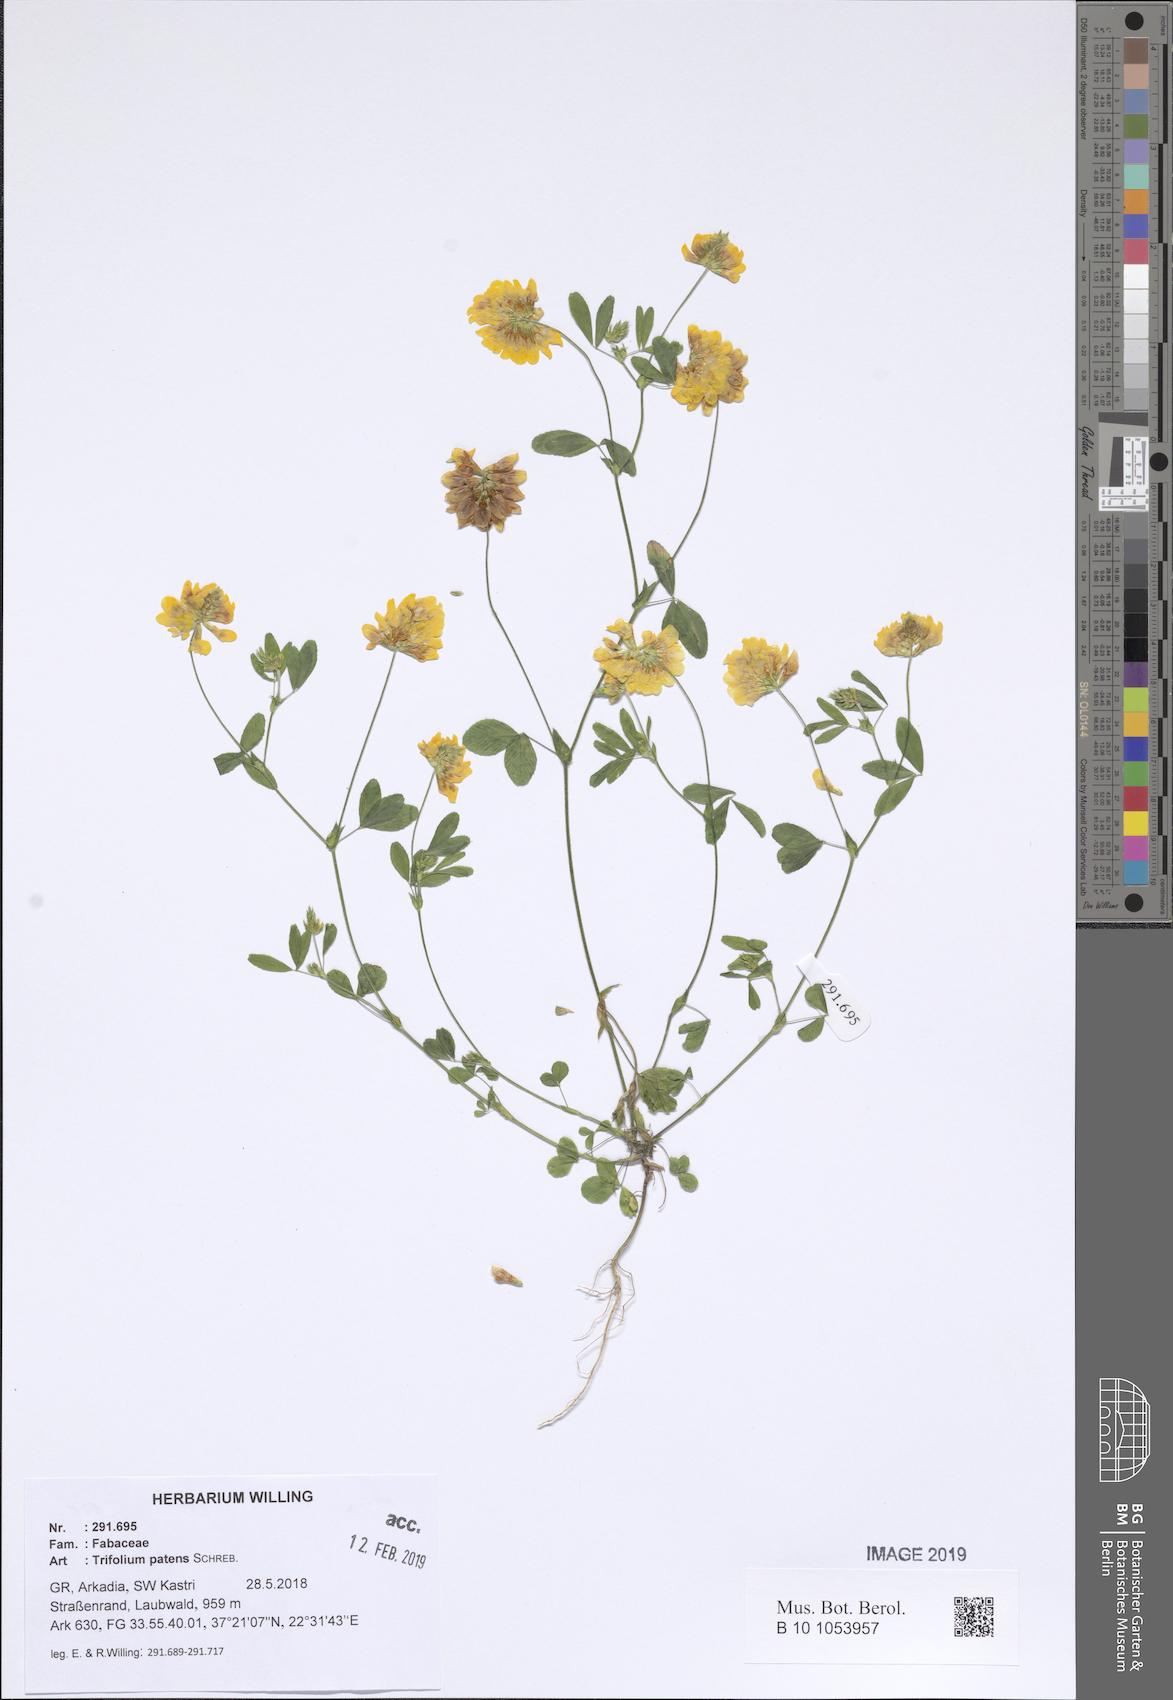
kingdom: Plantae
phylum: Tracheophyta
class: Magnoliopsida
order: Fabales
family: Fabaceae
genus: Trifolium
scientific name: Trifolium patens
